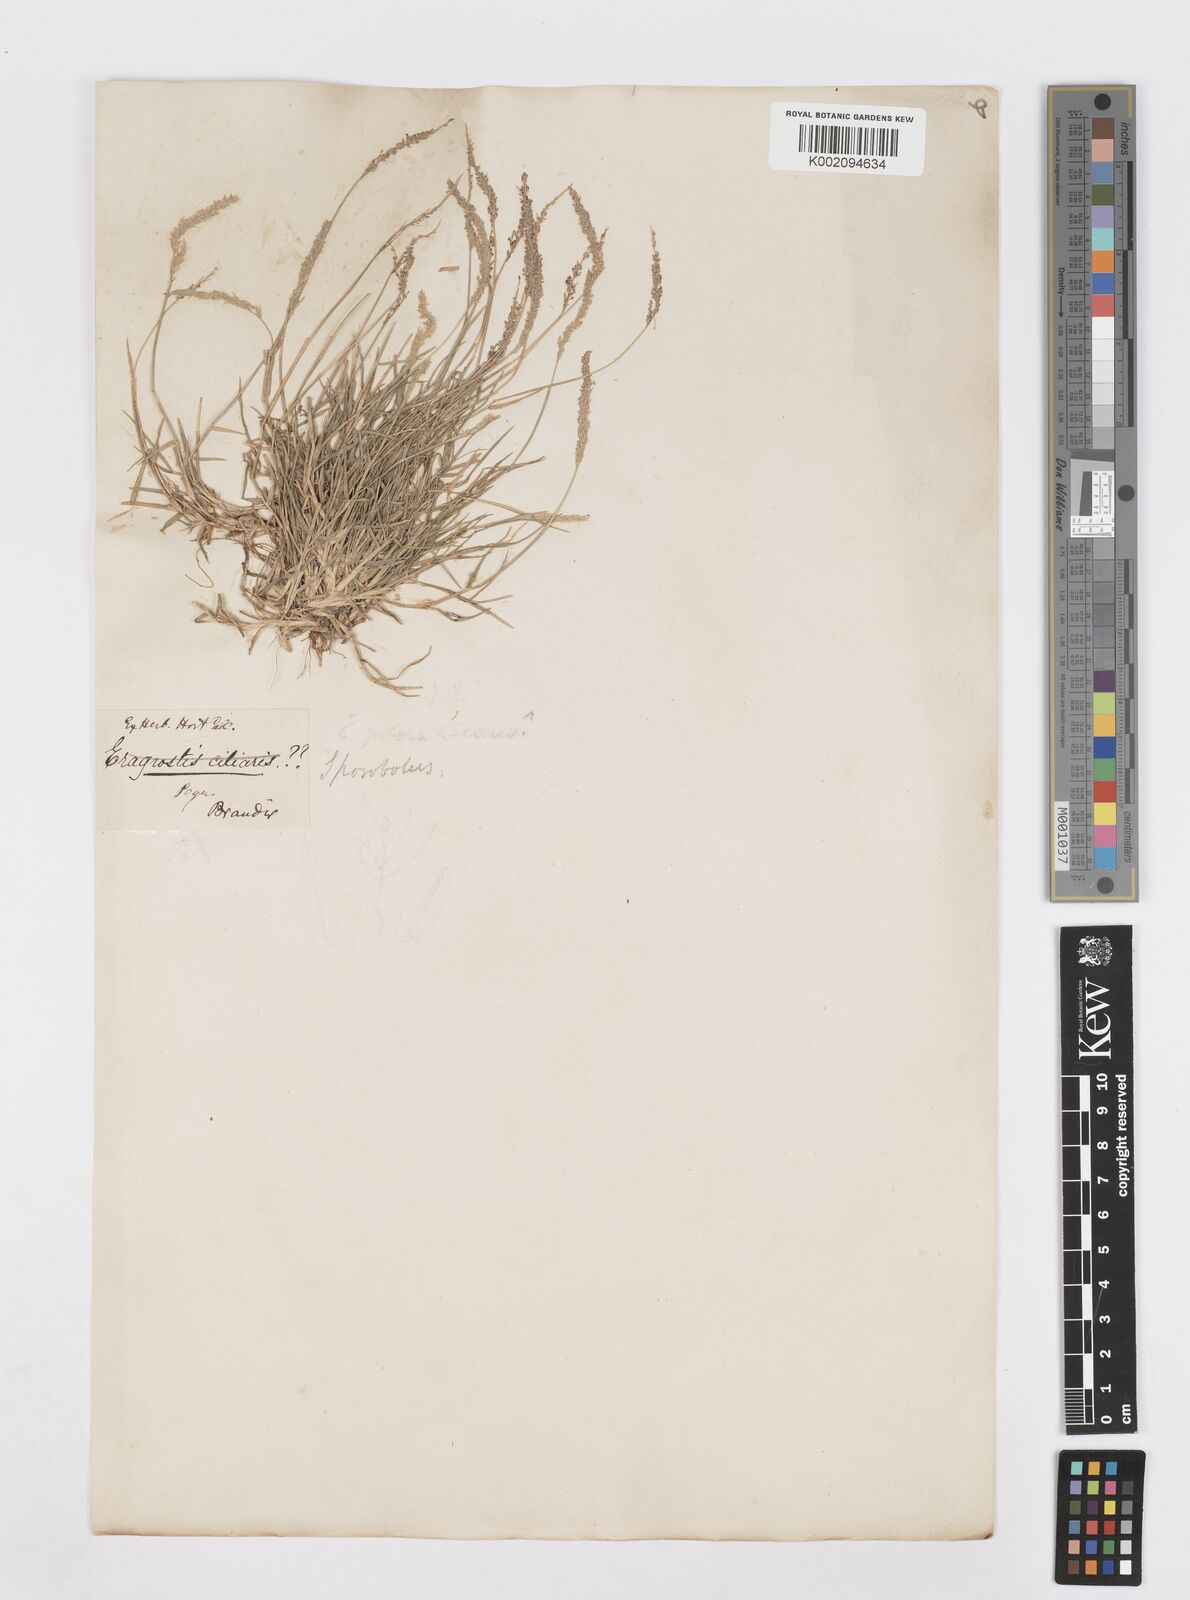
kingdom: Plantae
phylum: Tracheophyta
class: Liliopsida
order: Poales
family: Poaceae
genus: Sporobolus
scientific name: Sporobolus virginicus
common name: Beach dropseed
